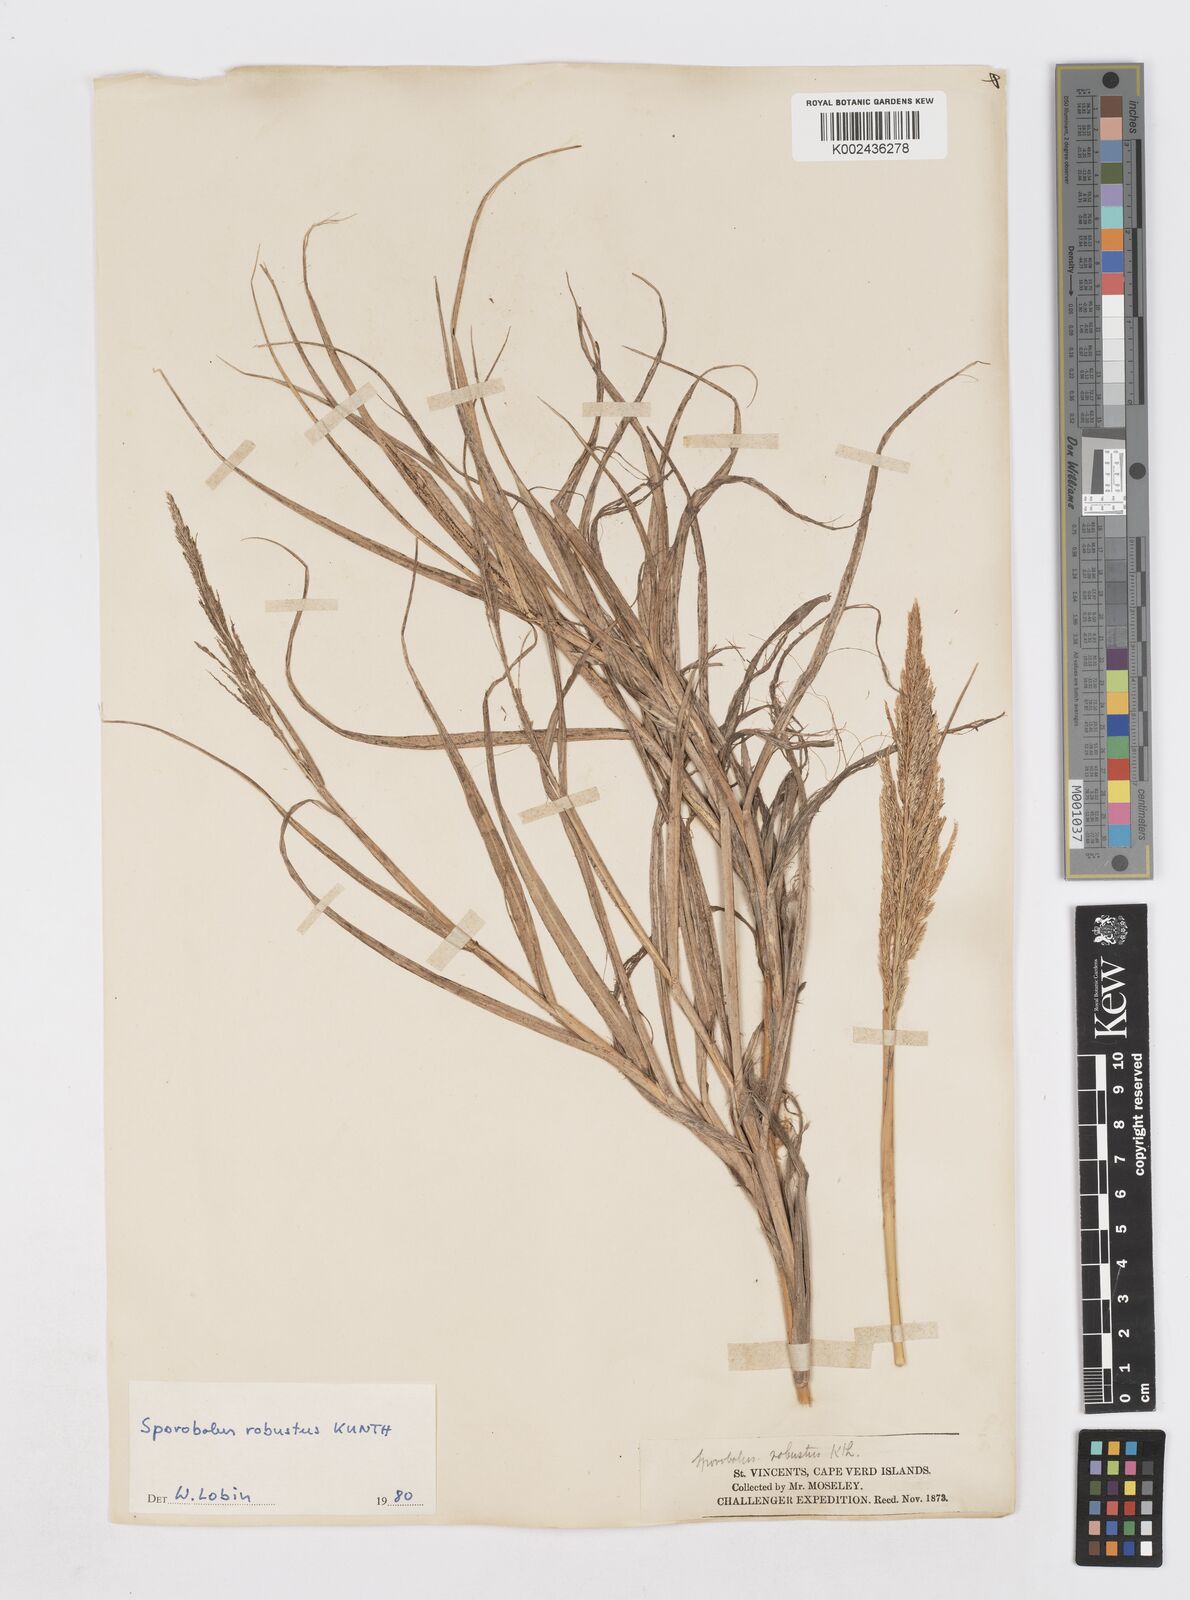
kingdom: Plantae
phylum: Tracheophyta
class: Liliopsida
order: Poales
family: Poaceae
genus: Sporobolus
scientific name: Sporobolus robustus
